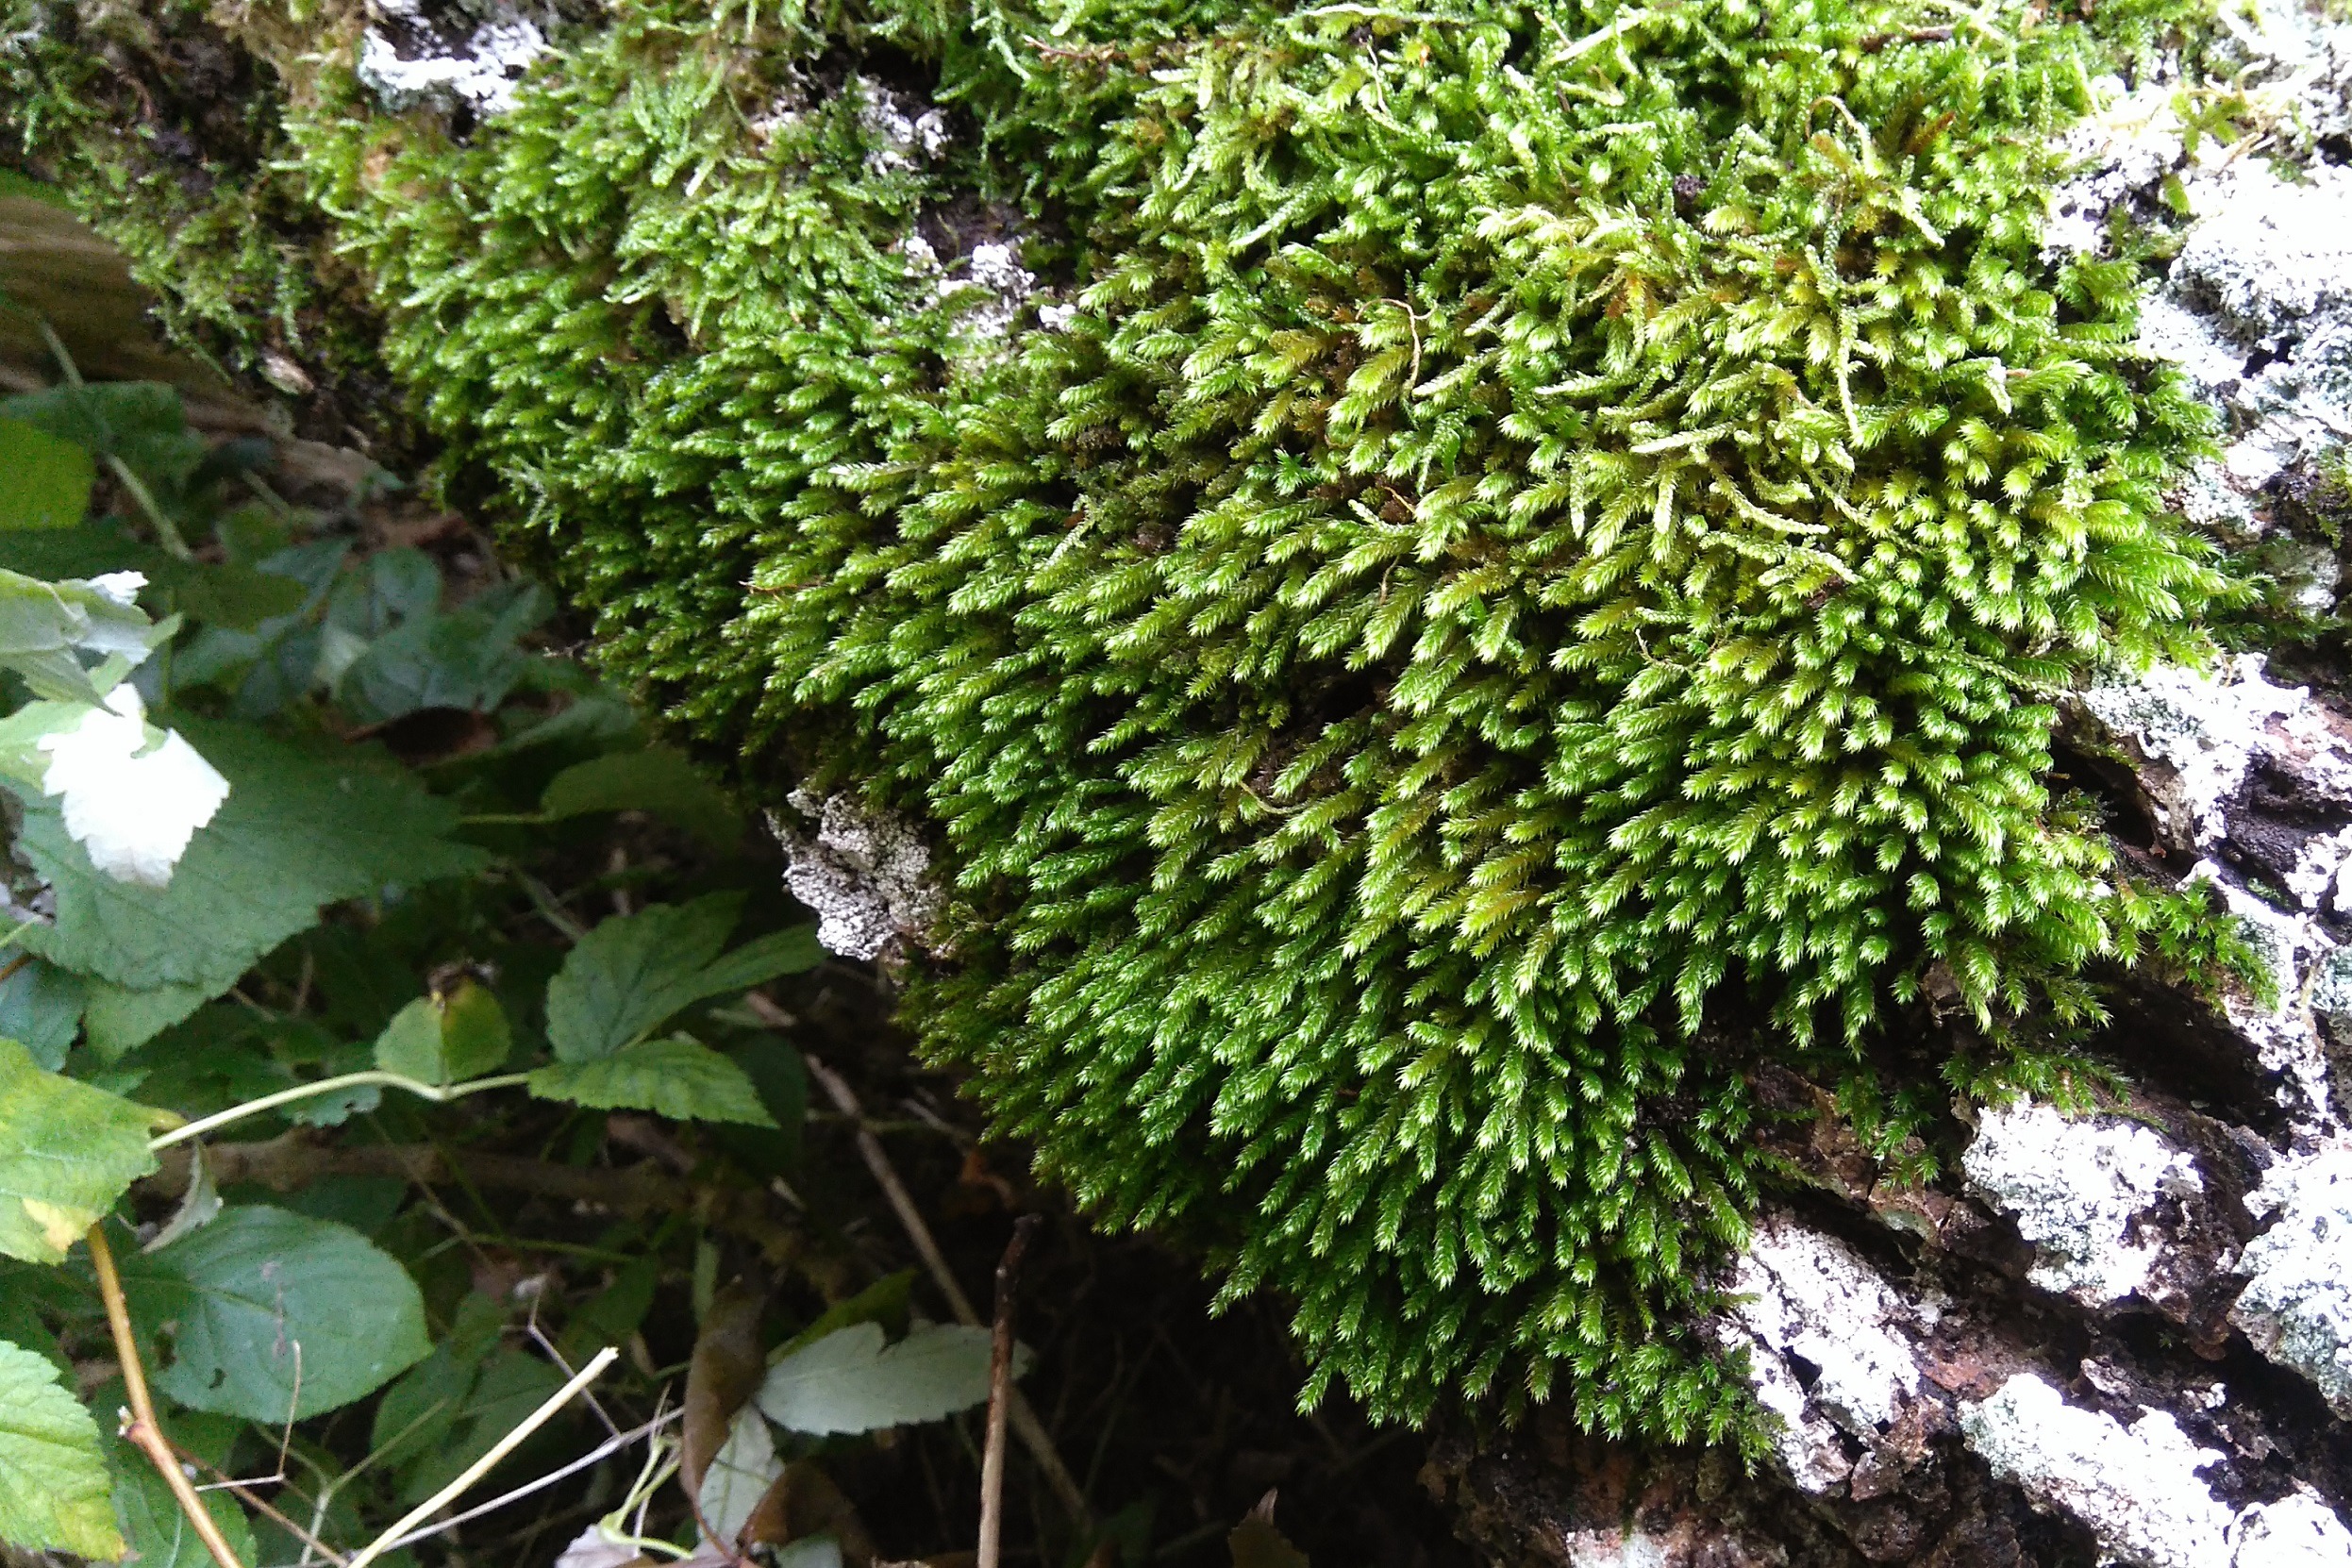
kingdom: Plantae
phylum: Bryophyta
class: Bryopsida
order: Hypnales
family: Leucodontaceae
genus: Leucodon
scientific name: Leucodon sciuroides
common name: Egernhale-buemos
